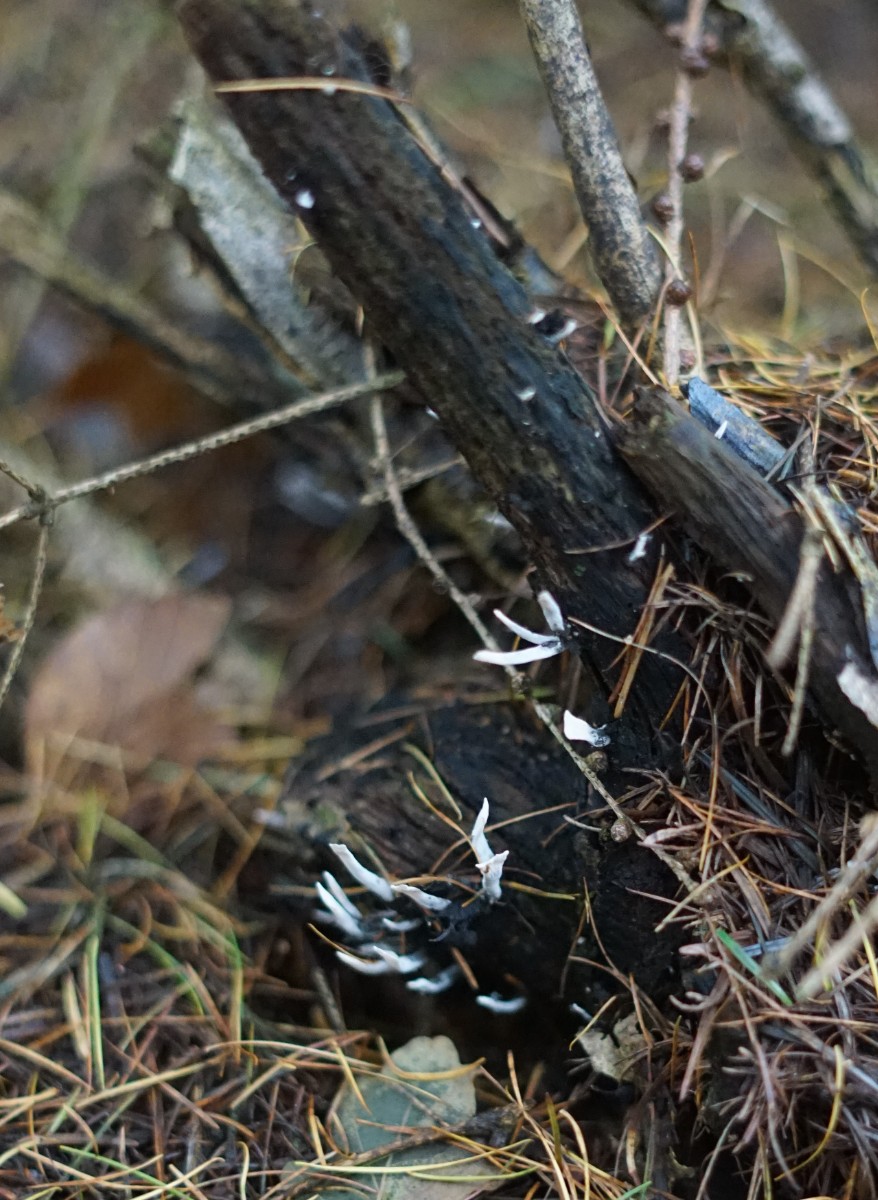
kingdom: Fungi
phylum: Ascomycota
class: Sordariomycetes
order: Xylariales
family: Xylariaceae
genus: Xylaria
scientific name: Xylaria hypoxylon
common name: grenet stødsvamp
